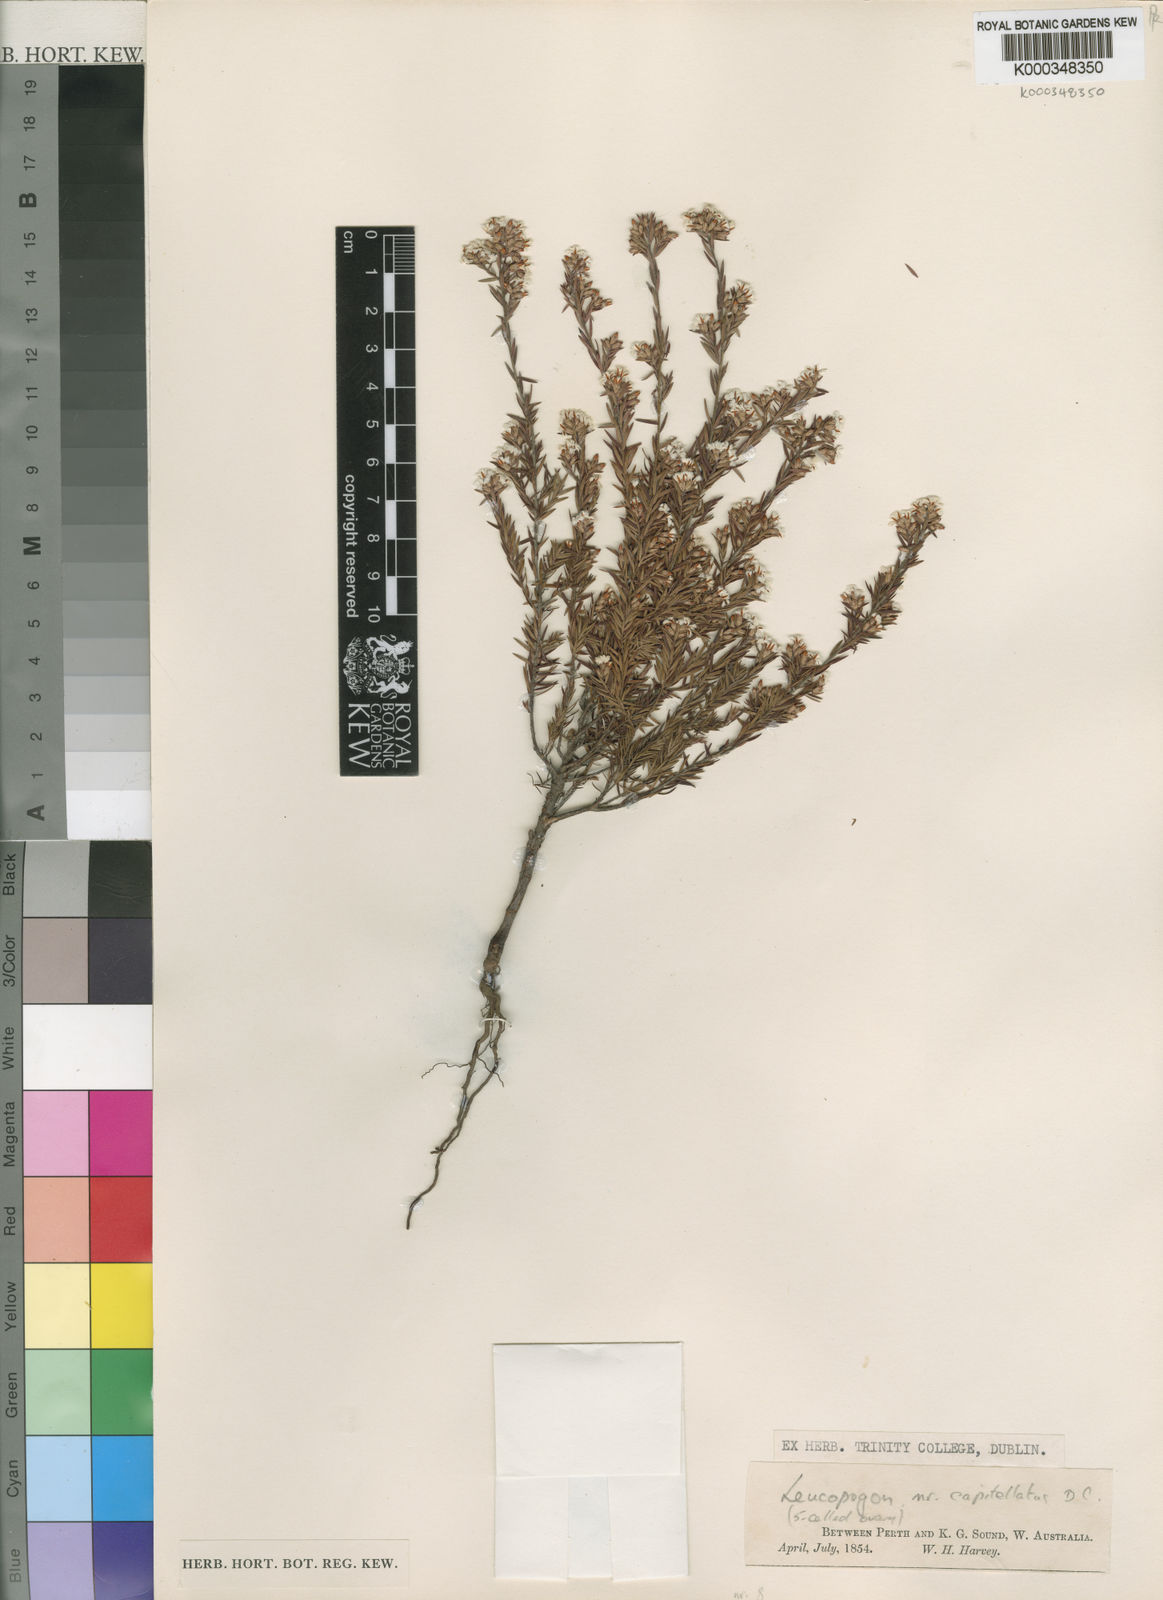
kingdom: Plantae
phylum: Tracheophyta
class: Magnoliopsida
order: Ericales
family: Ericaceae
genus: Leucopogon
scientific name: Leucopogon capitellatus
